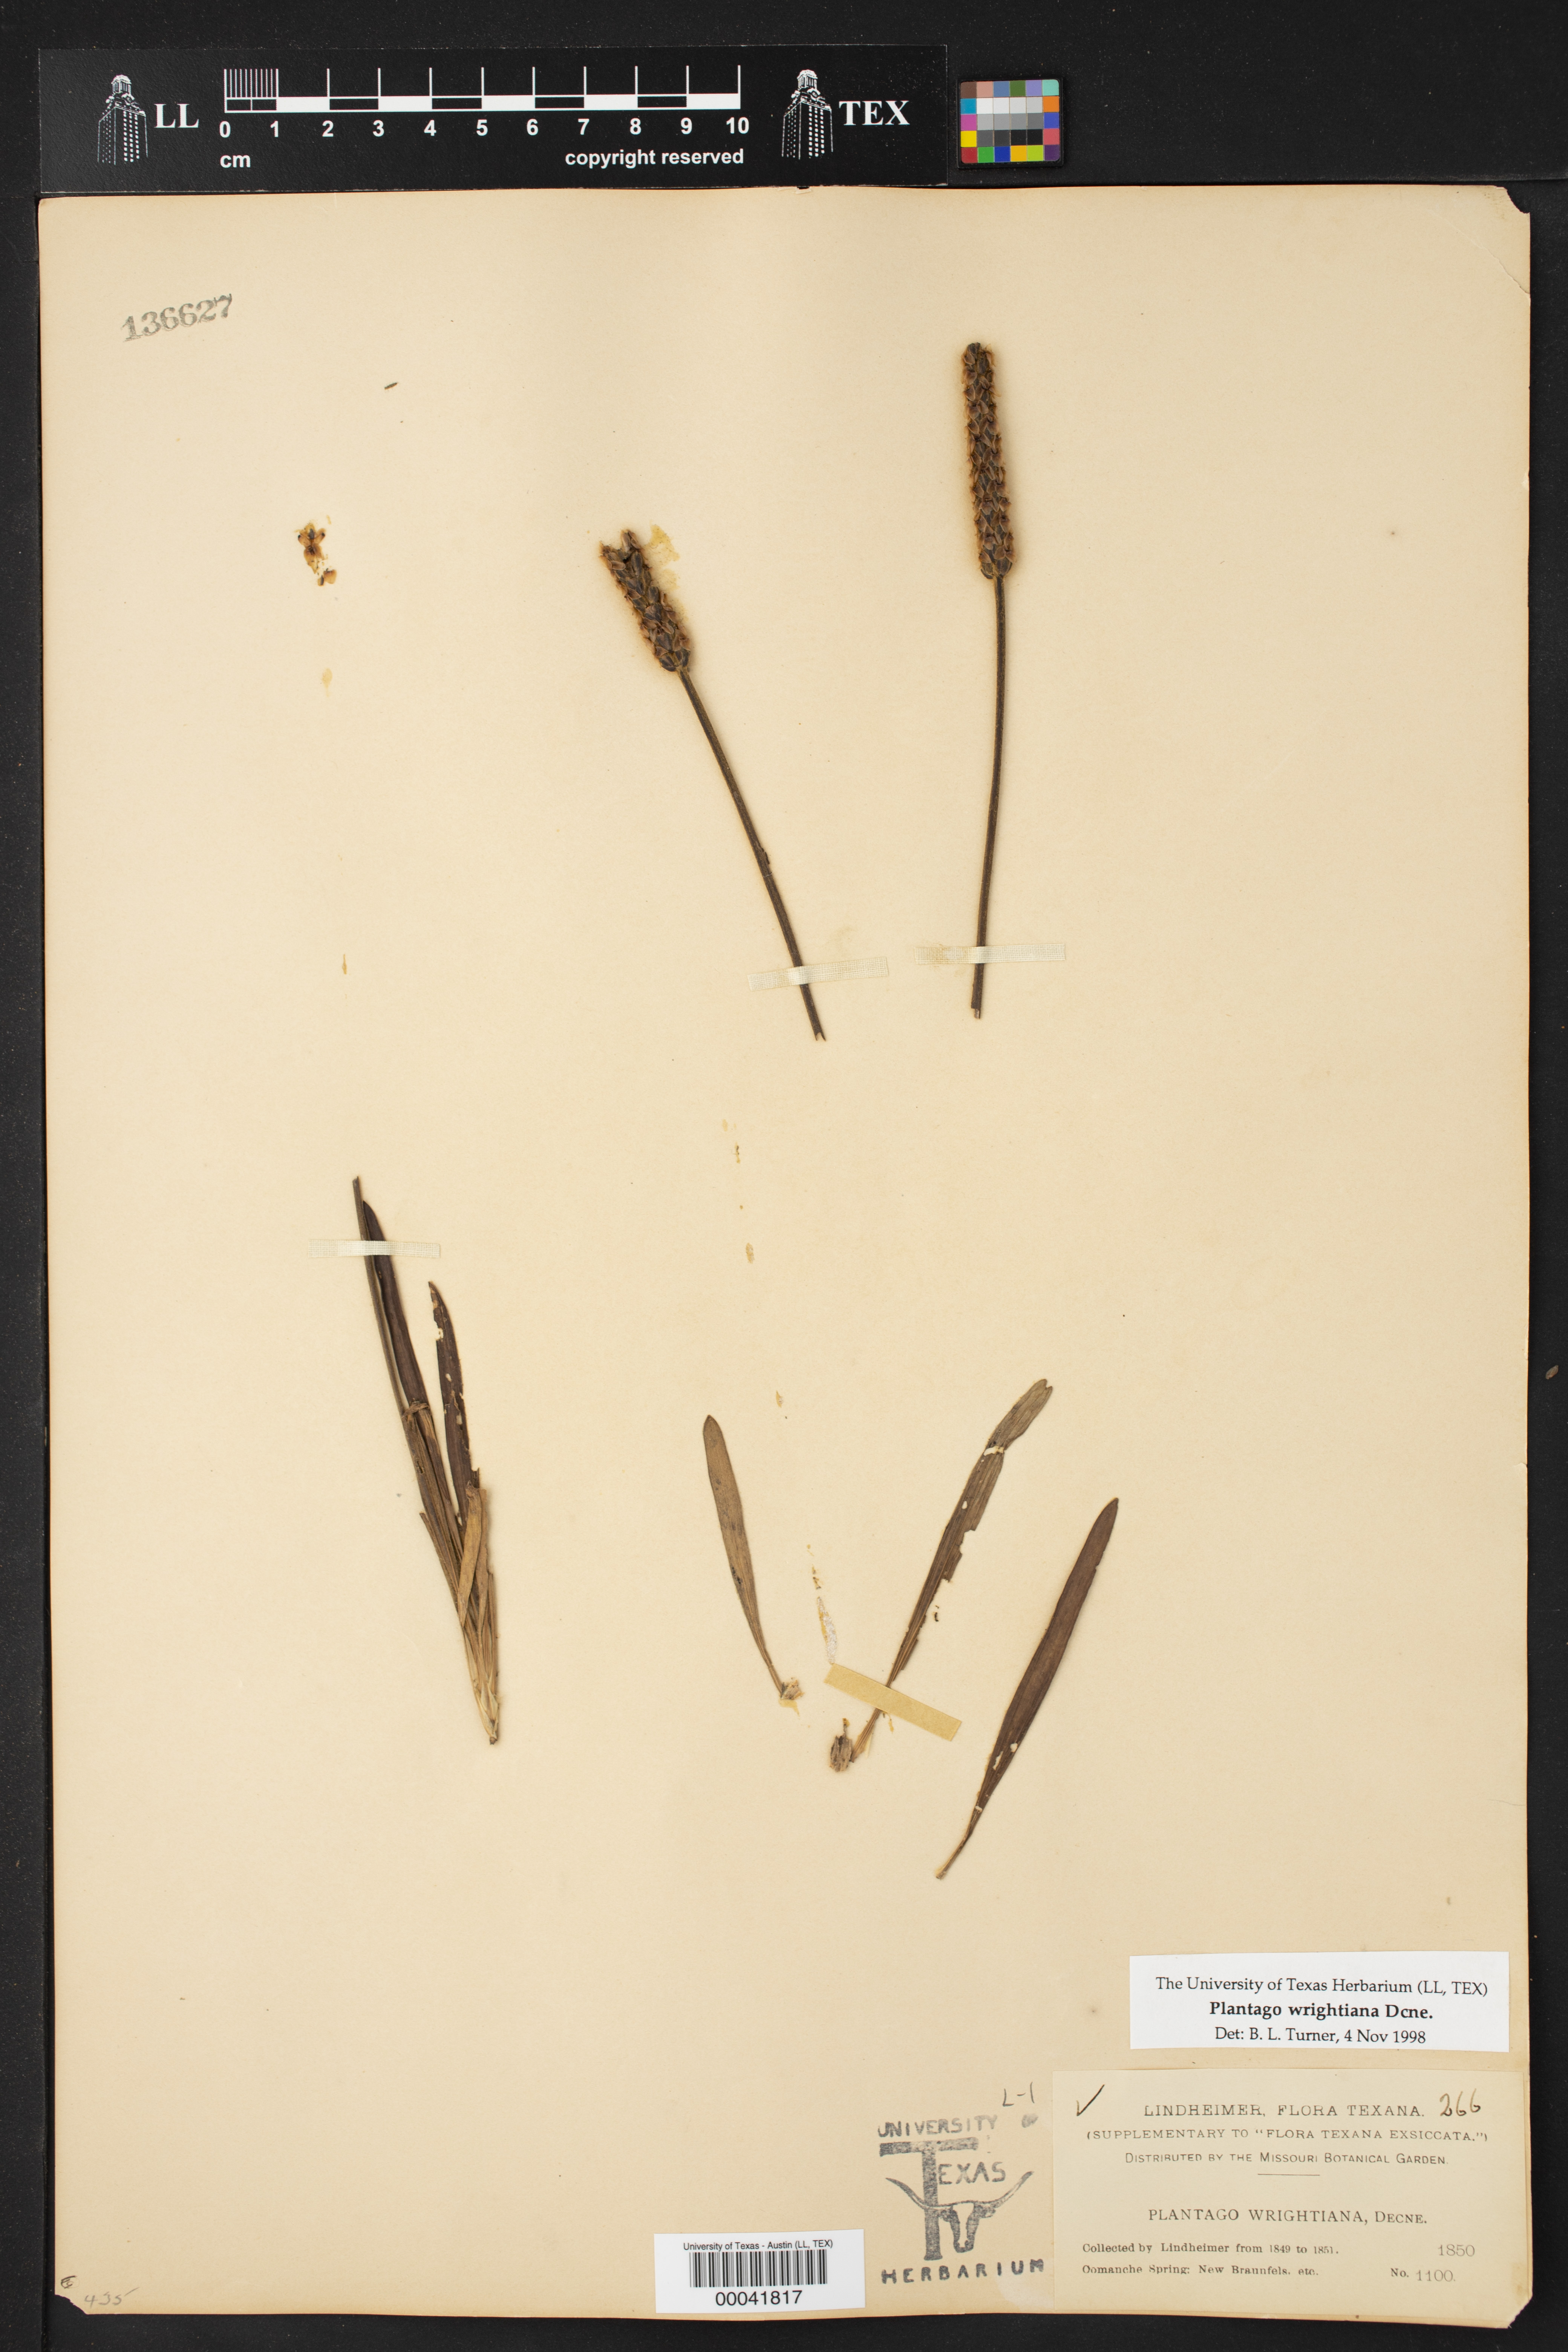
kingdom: Plantae
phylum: Tracheophyta
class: Magnoliopsida
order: Lamiales
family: Plantaginaceae
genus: Plantago
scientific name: Plantago wrightiana
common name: Wright's plantain
